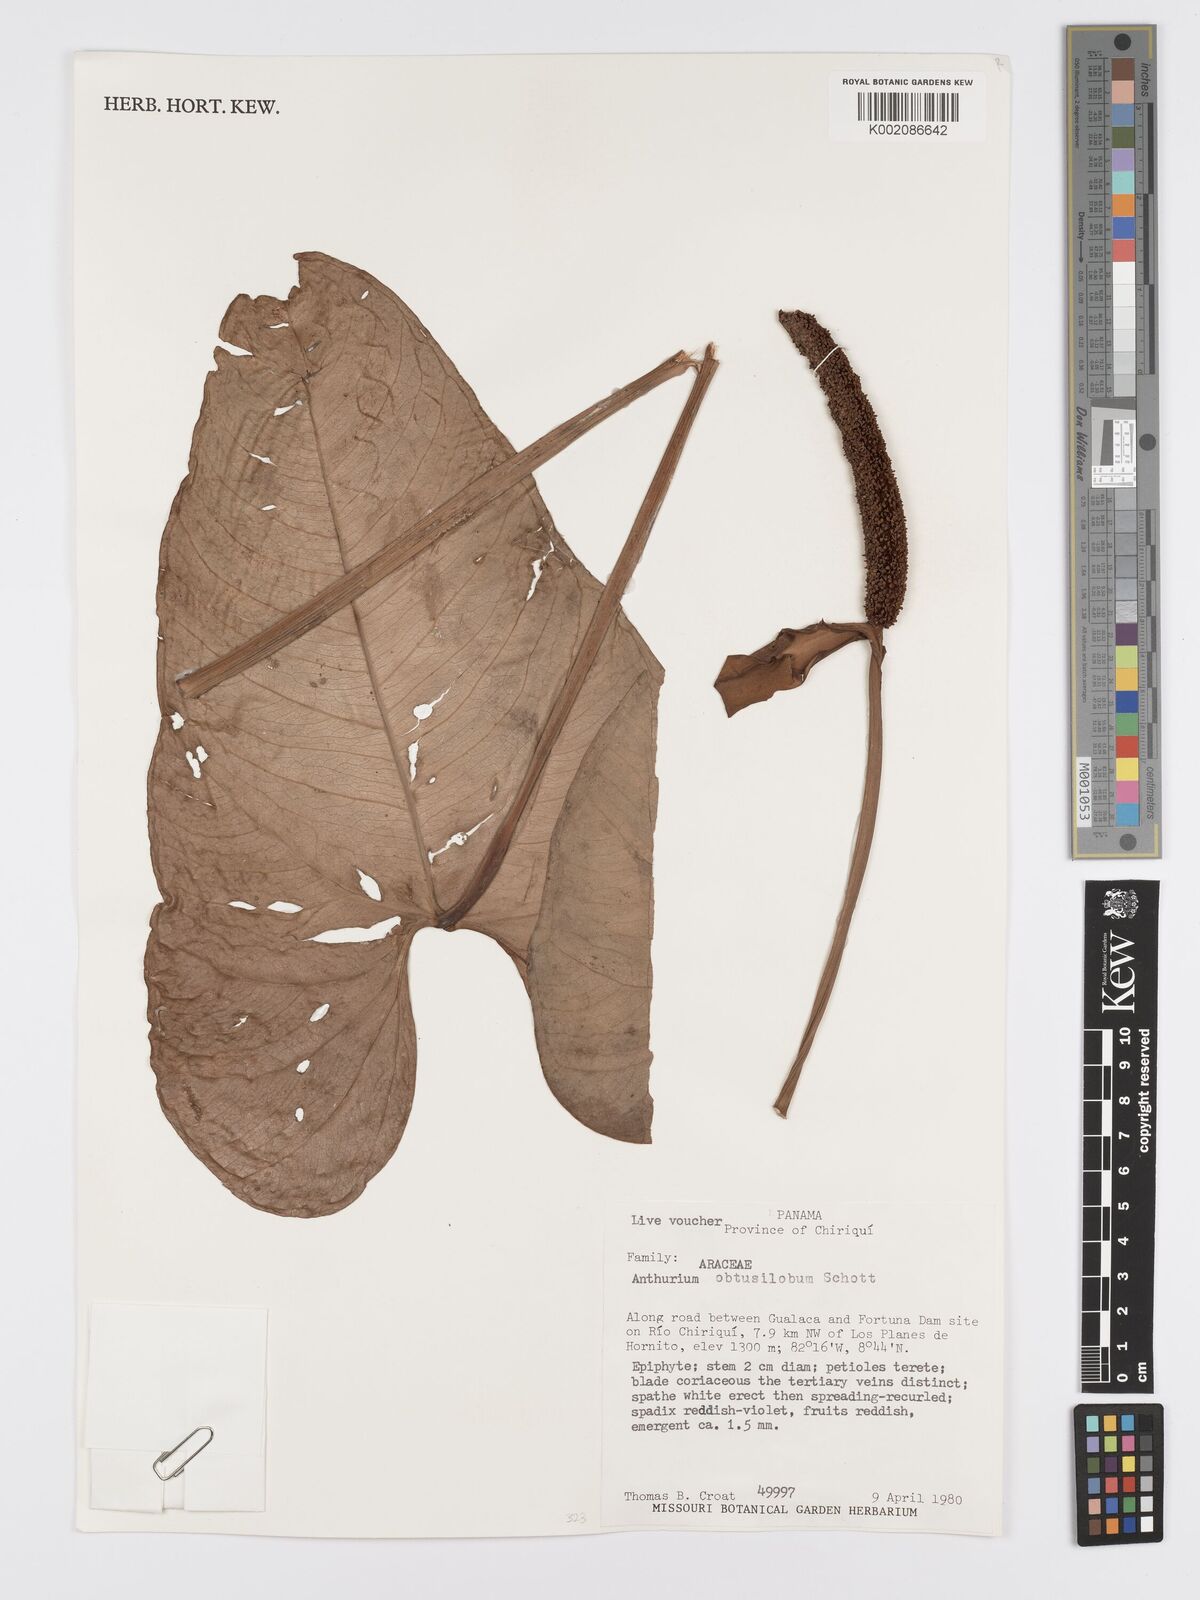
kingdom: Plantae
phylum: Tracheophyta
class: Liliopsida
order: Alismatales
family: Araceae
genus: Anthurium
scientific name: Anthurium obtusilobum
